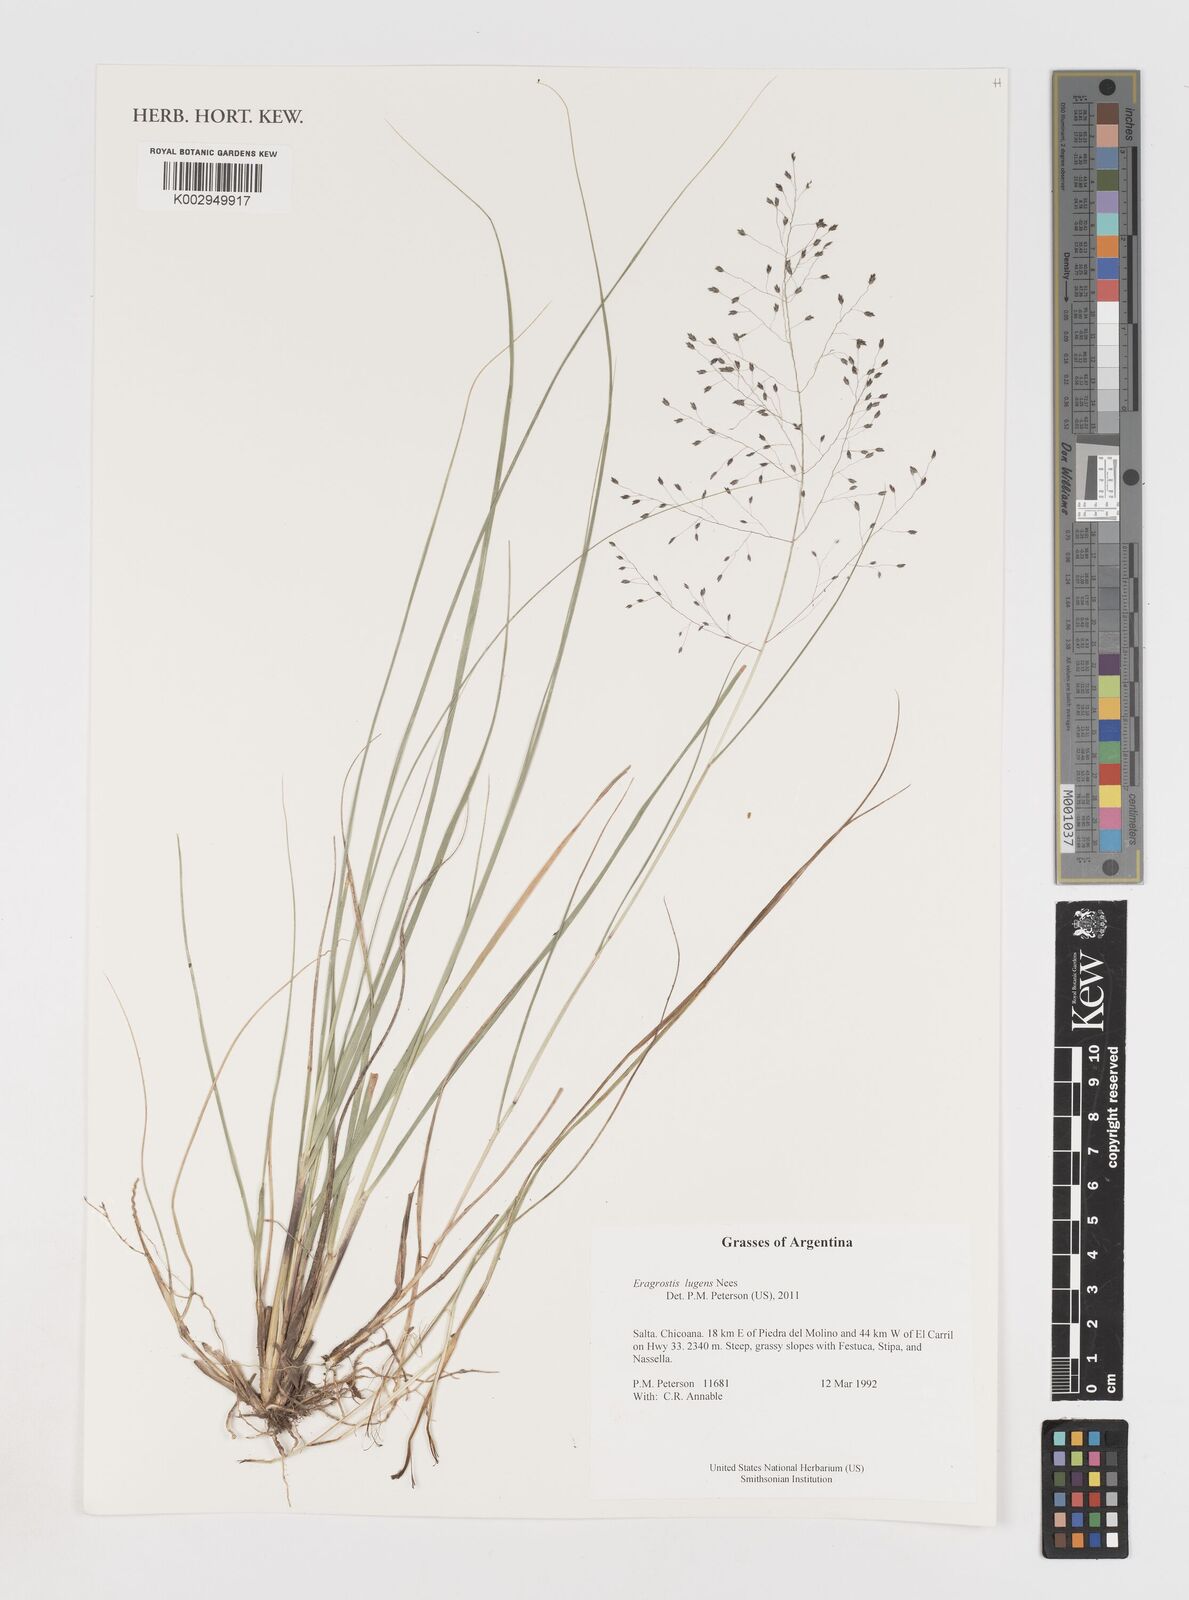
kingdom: Plantae
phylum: Tracheophyta
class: Liliopsida
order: Poales
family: Poaceae
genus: Eragrostis
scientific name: Eragrostis lugens
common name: Mourning love grass
